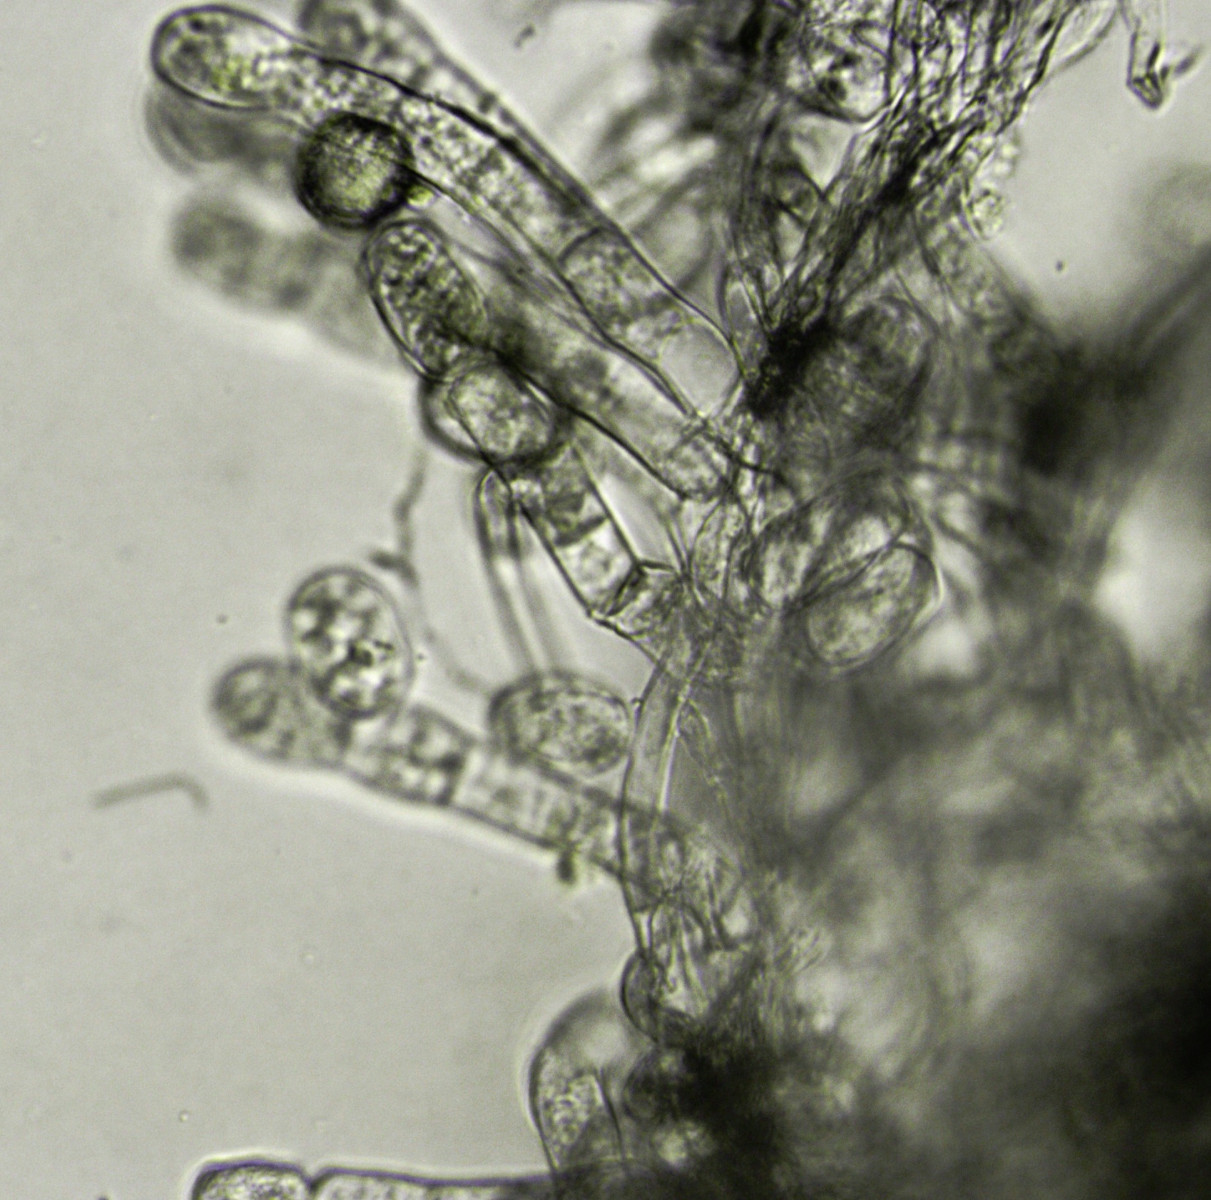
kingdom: Fungi
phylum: Ascomycota
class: Leotiomycetes
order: Helotiales
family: Erysiphaceae
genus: Golovinomyces
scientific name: Golovinomyces orontii
